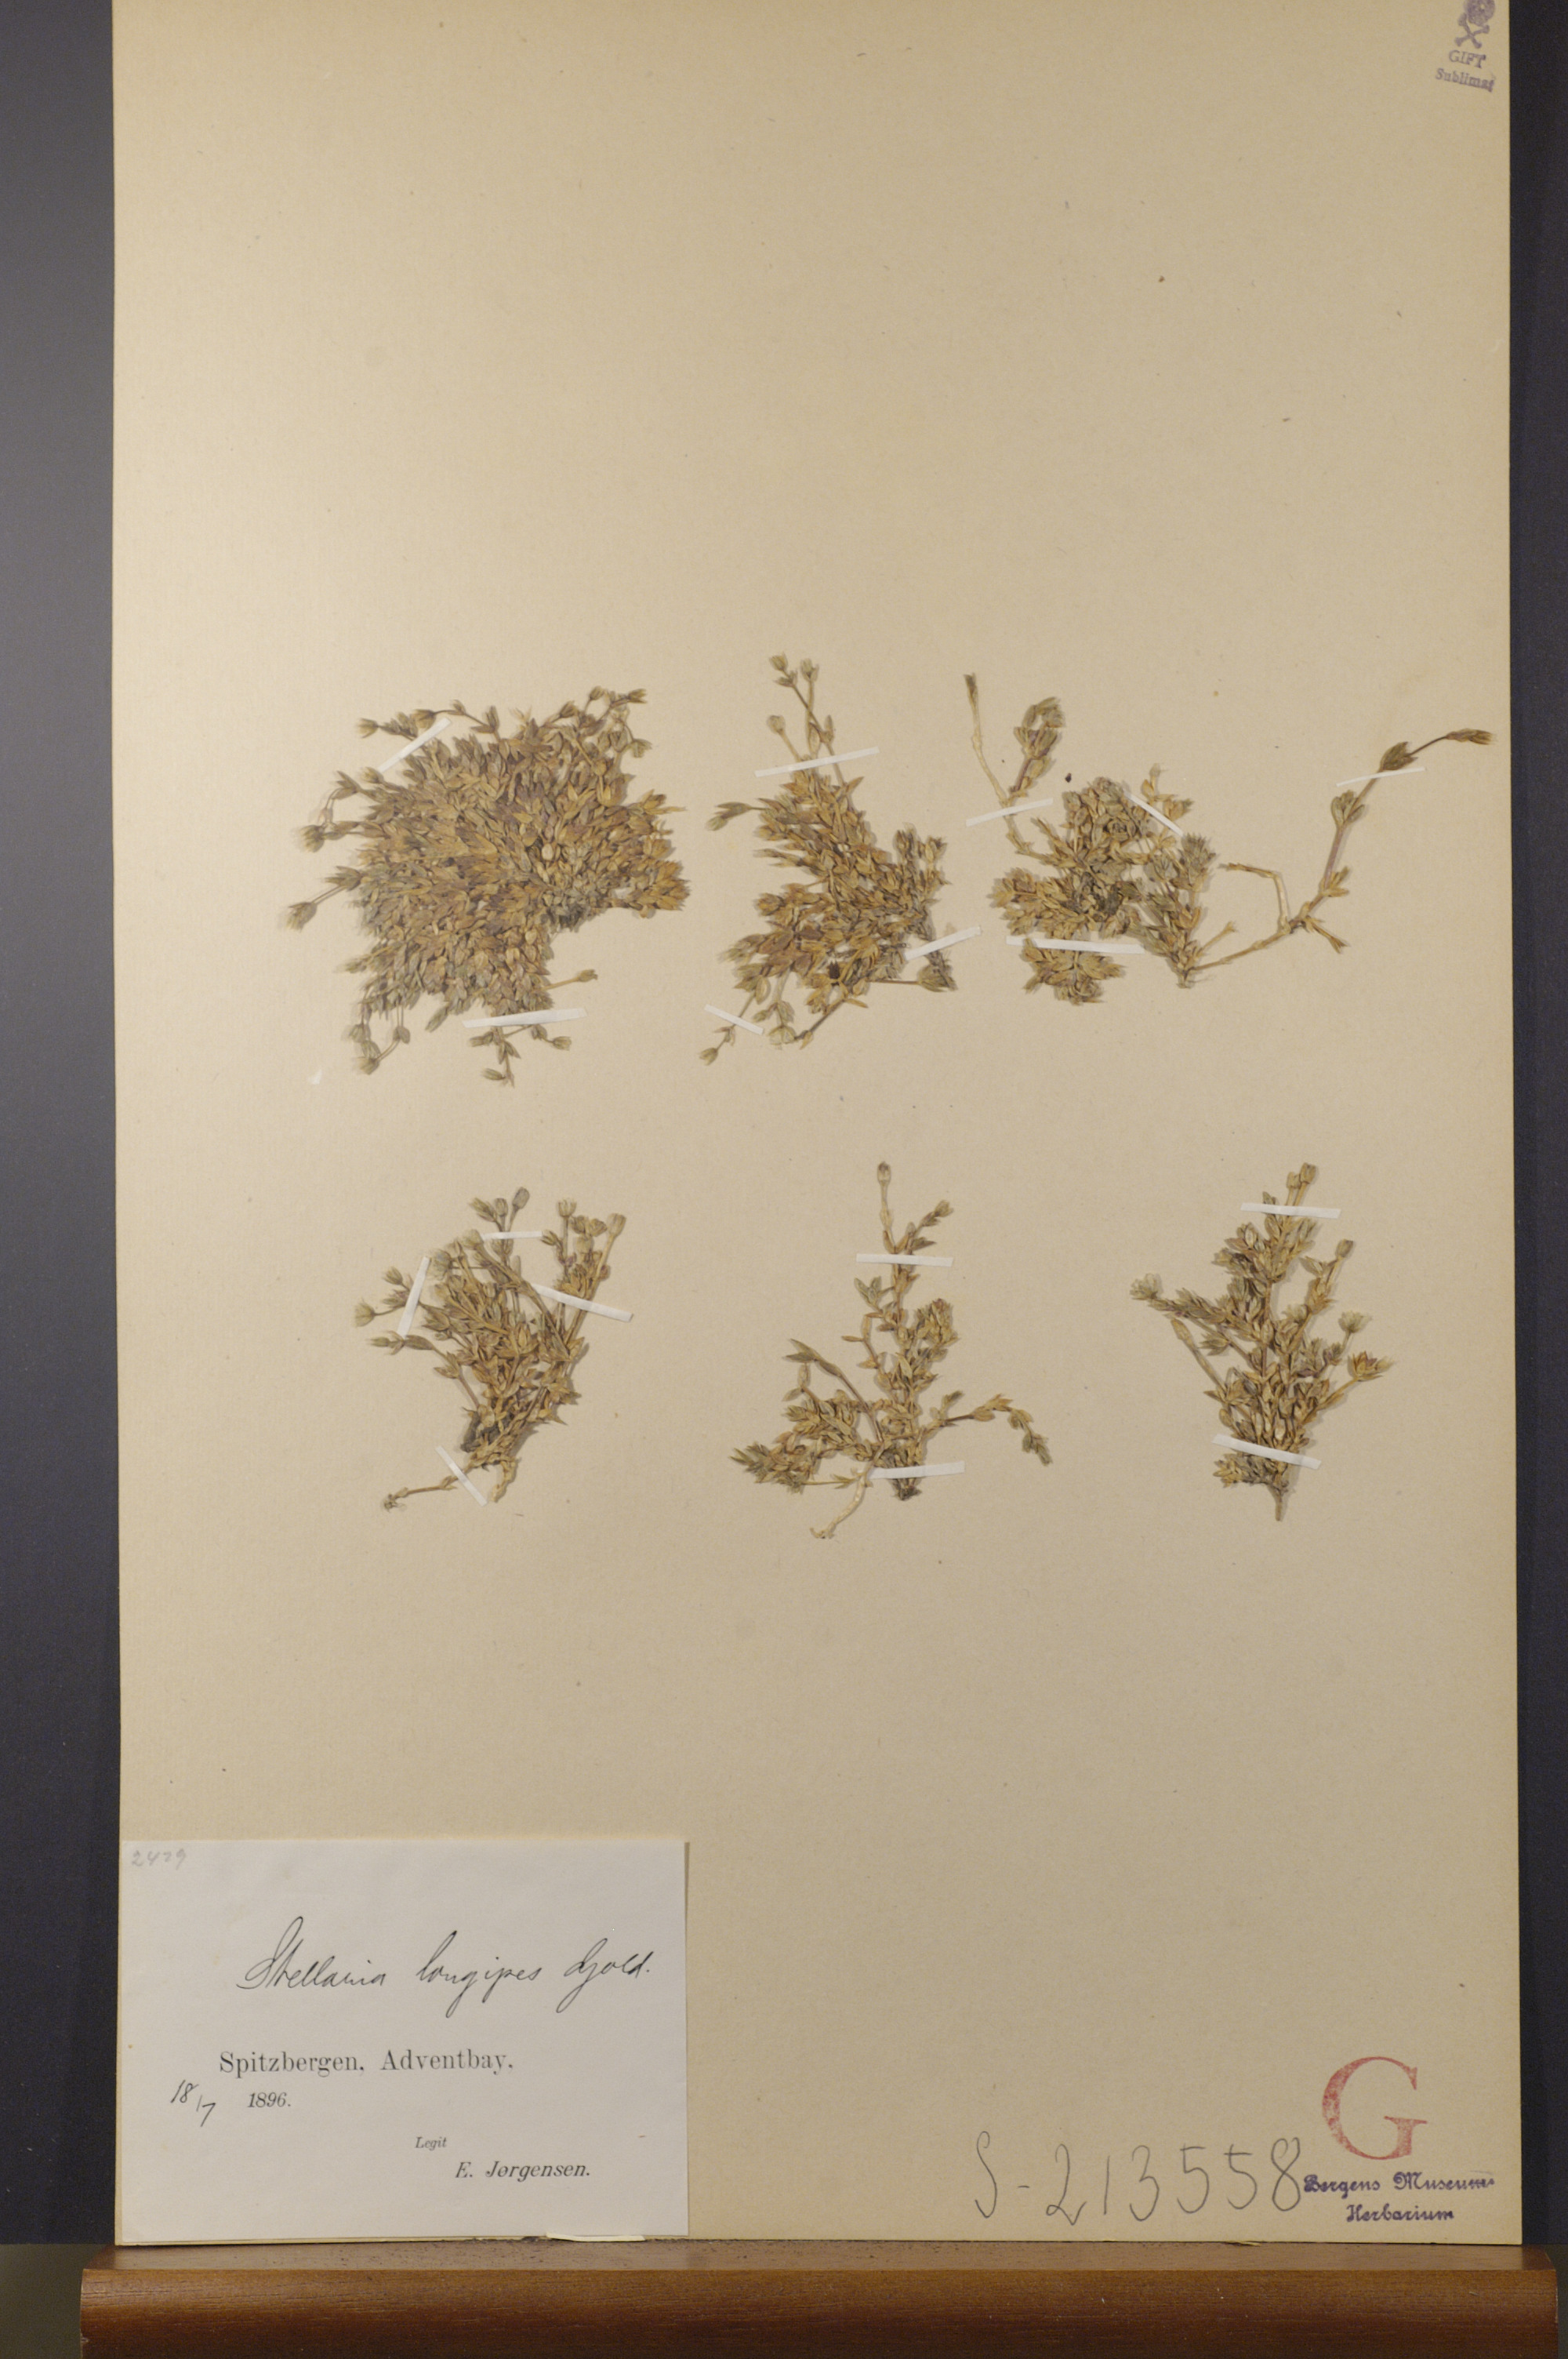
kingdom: Plantae
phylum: Tracheophyta
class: Magnoliopsida
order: Caryophyllales
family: Caryophyllaceae
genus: Stellaria
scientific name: Stellaria longipes
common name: Goldie's starwort
